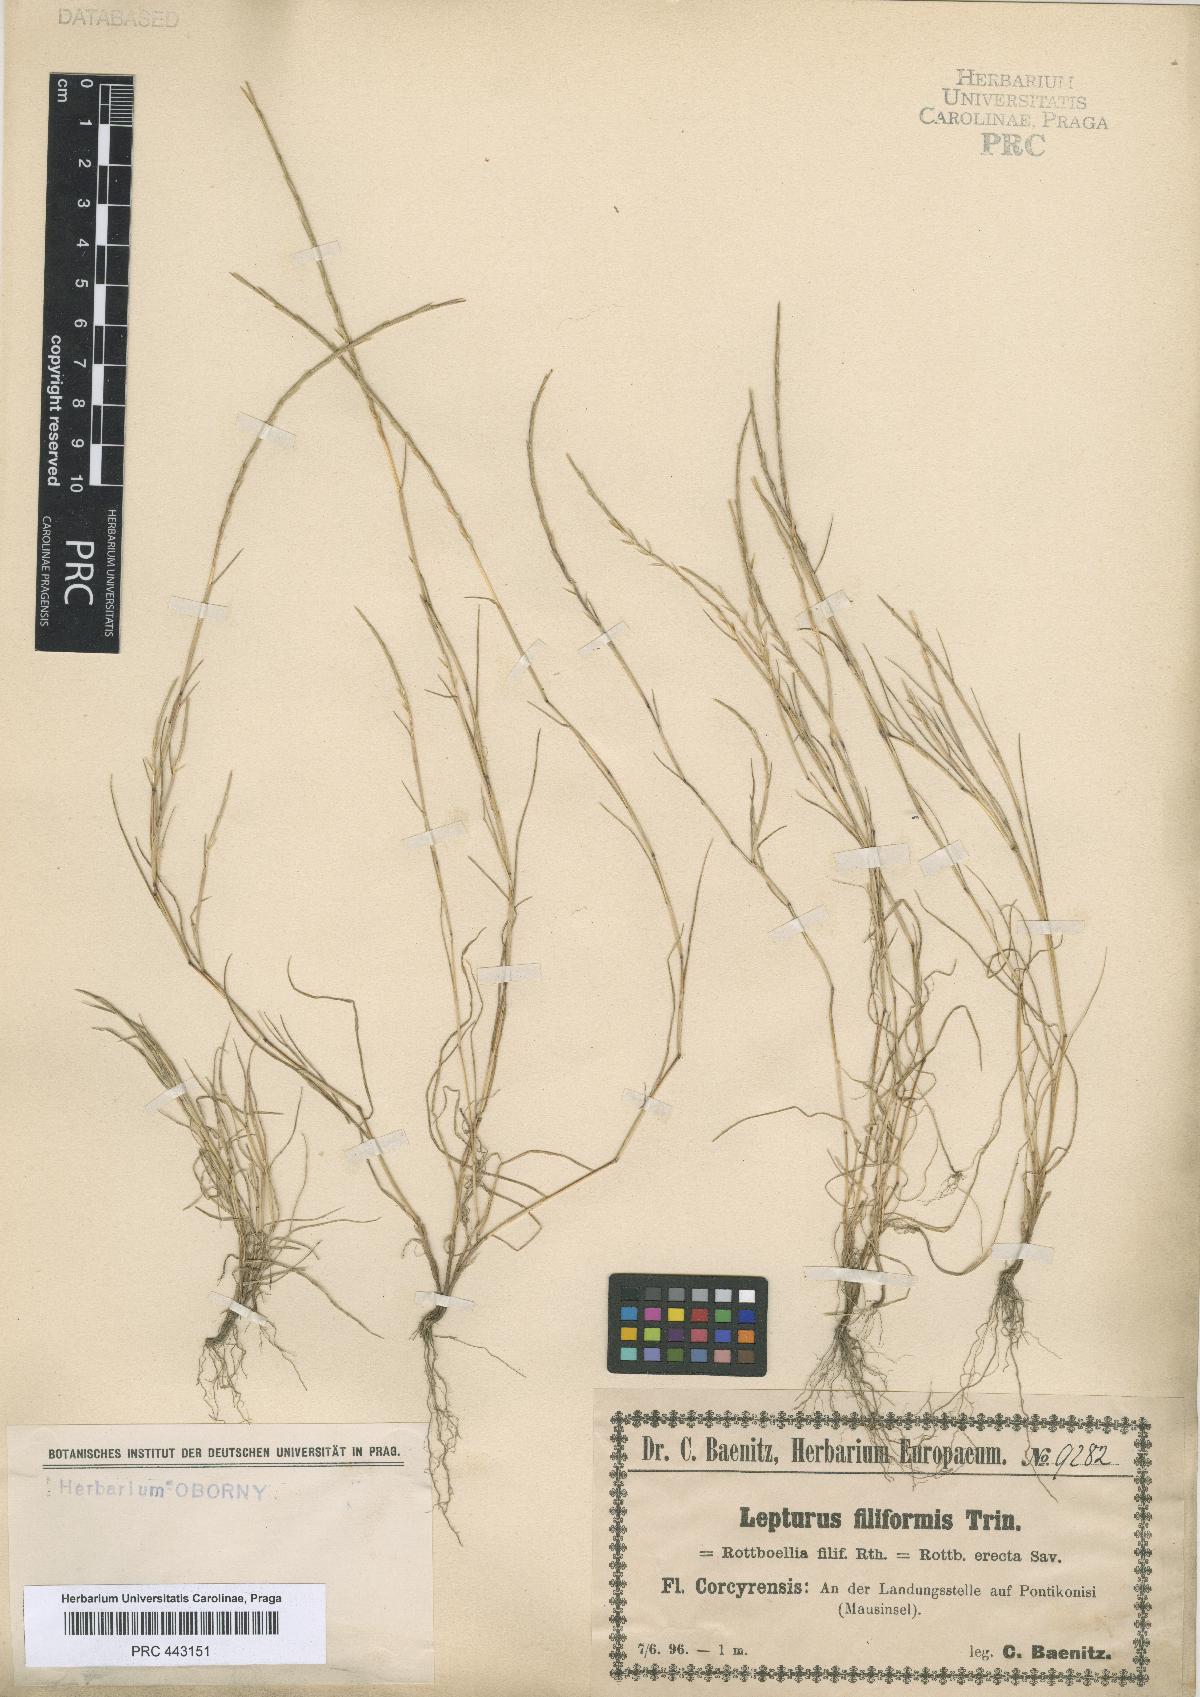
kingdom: Plantae
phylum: Tracheophyta
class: Liliopsida
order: Poales
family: Poaceae
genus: Parapholis
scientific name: Parapholis filiformis
